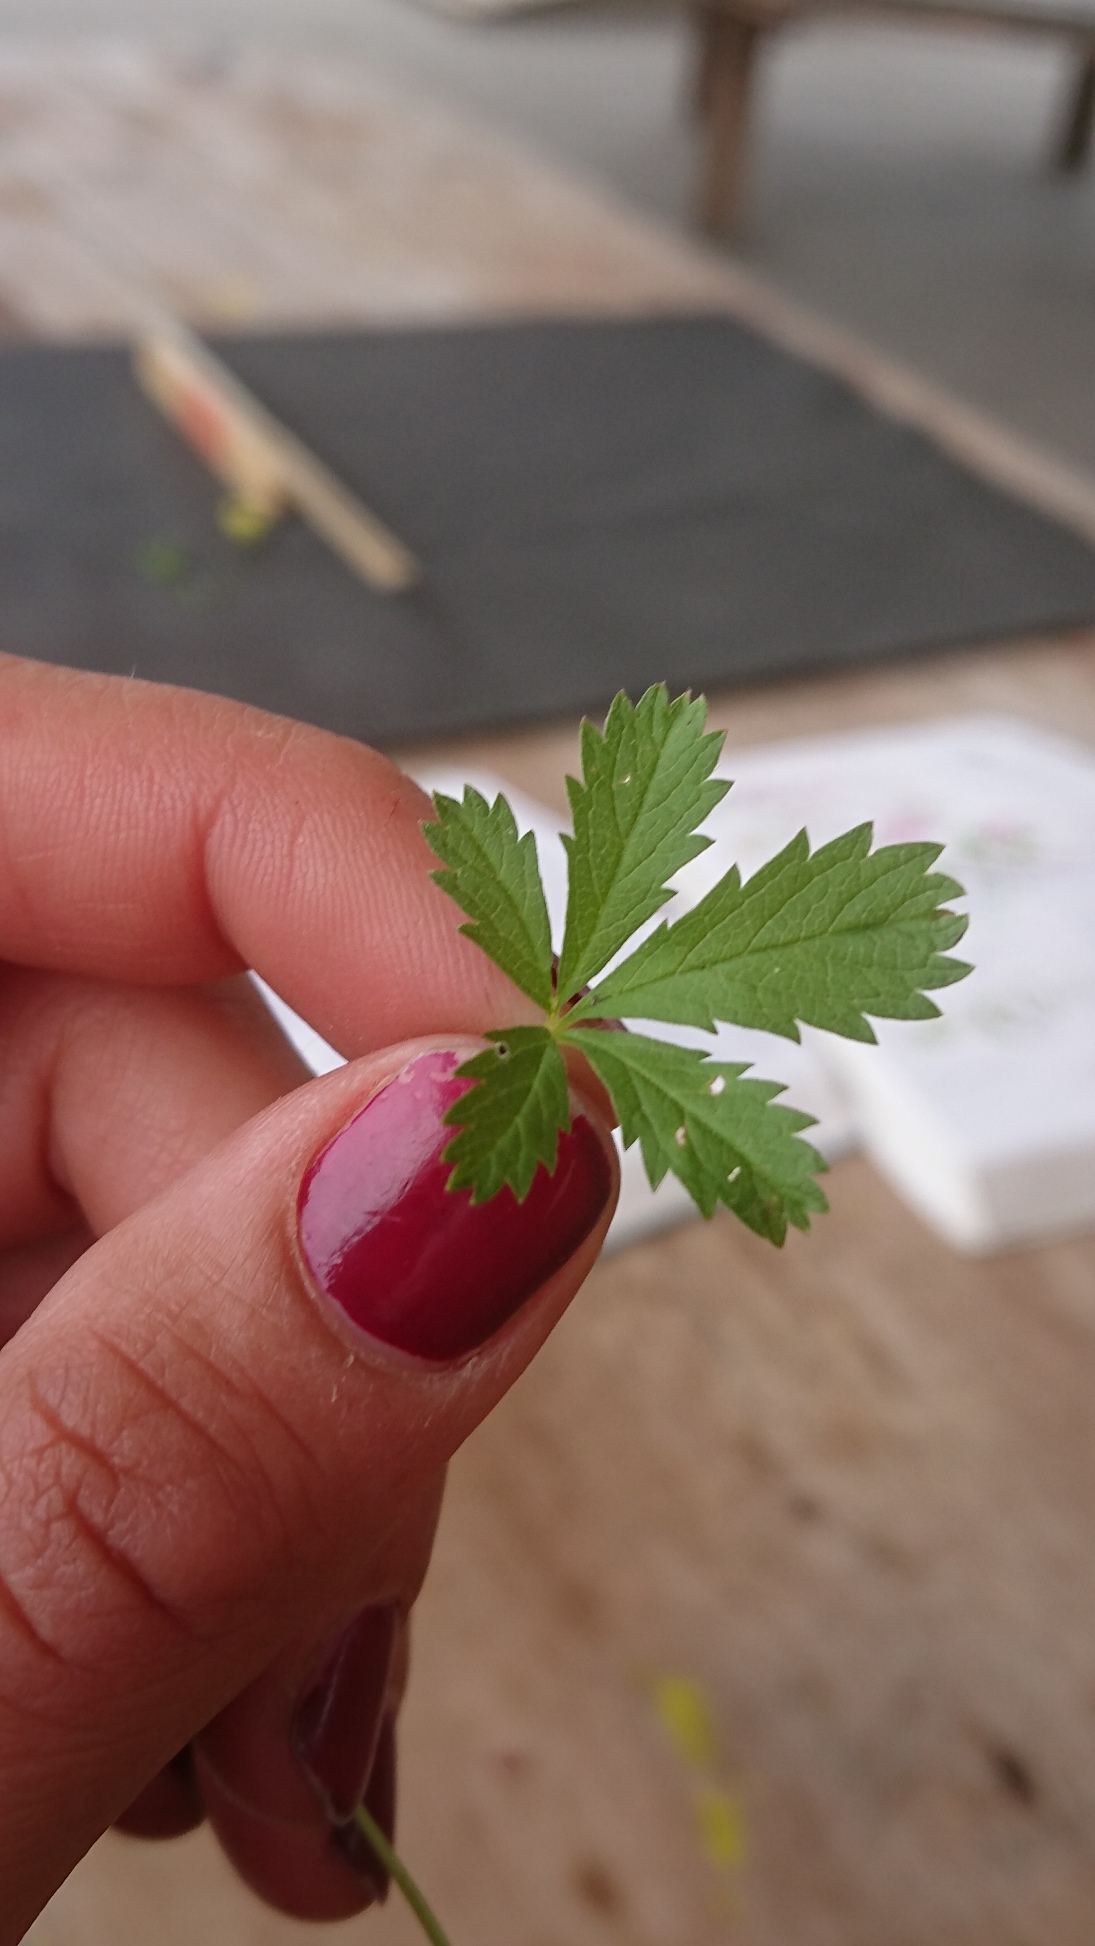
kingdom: Plantae
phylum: Tracheophyta
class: Magnoliopsida
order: Rosales
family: Rosaceae
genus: Potentilla
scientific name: Potentilla reptans
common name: Krybende potentil
